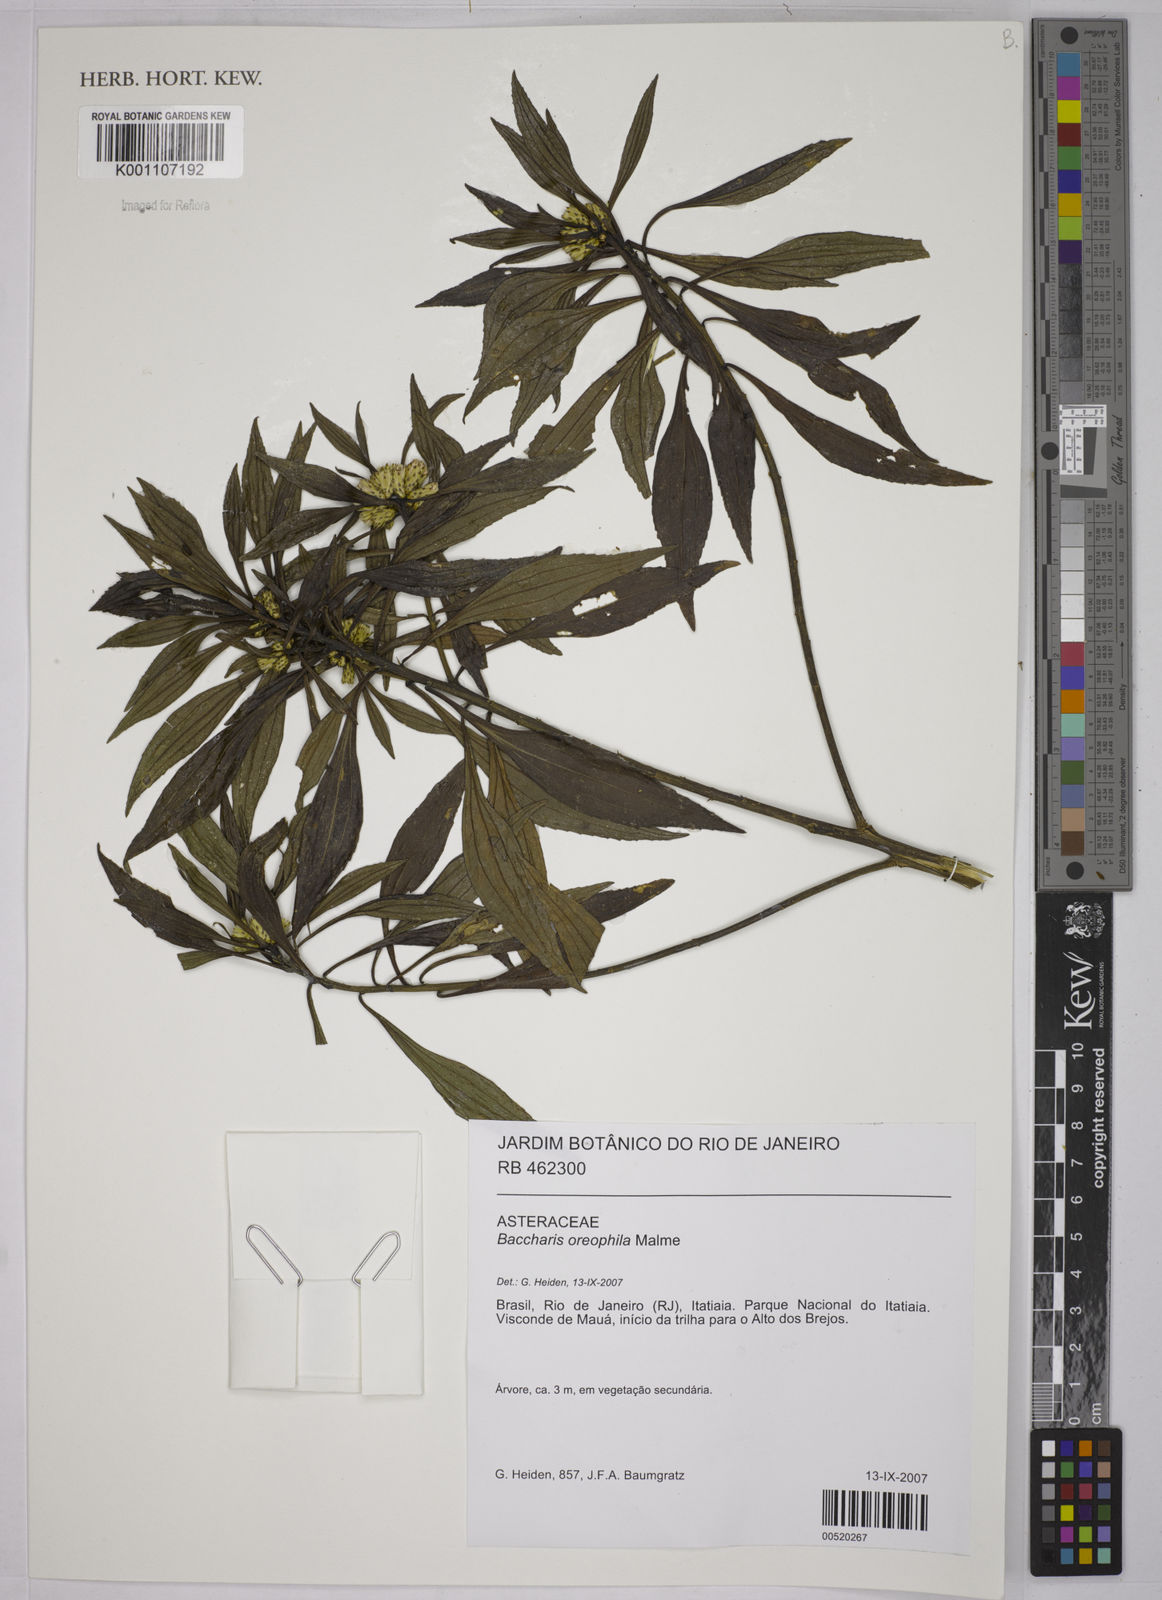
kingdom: Plantae
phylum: Tracheophyta
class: Magnoliopsida
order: Asterales
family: Asteraceae
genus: Baccharis
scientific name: Baccharis oreophila
